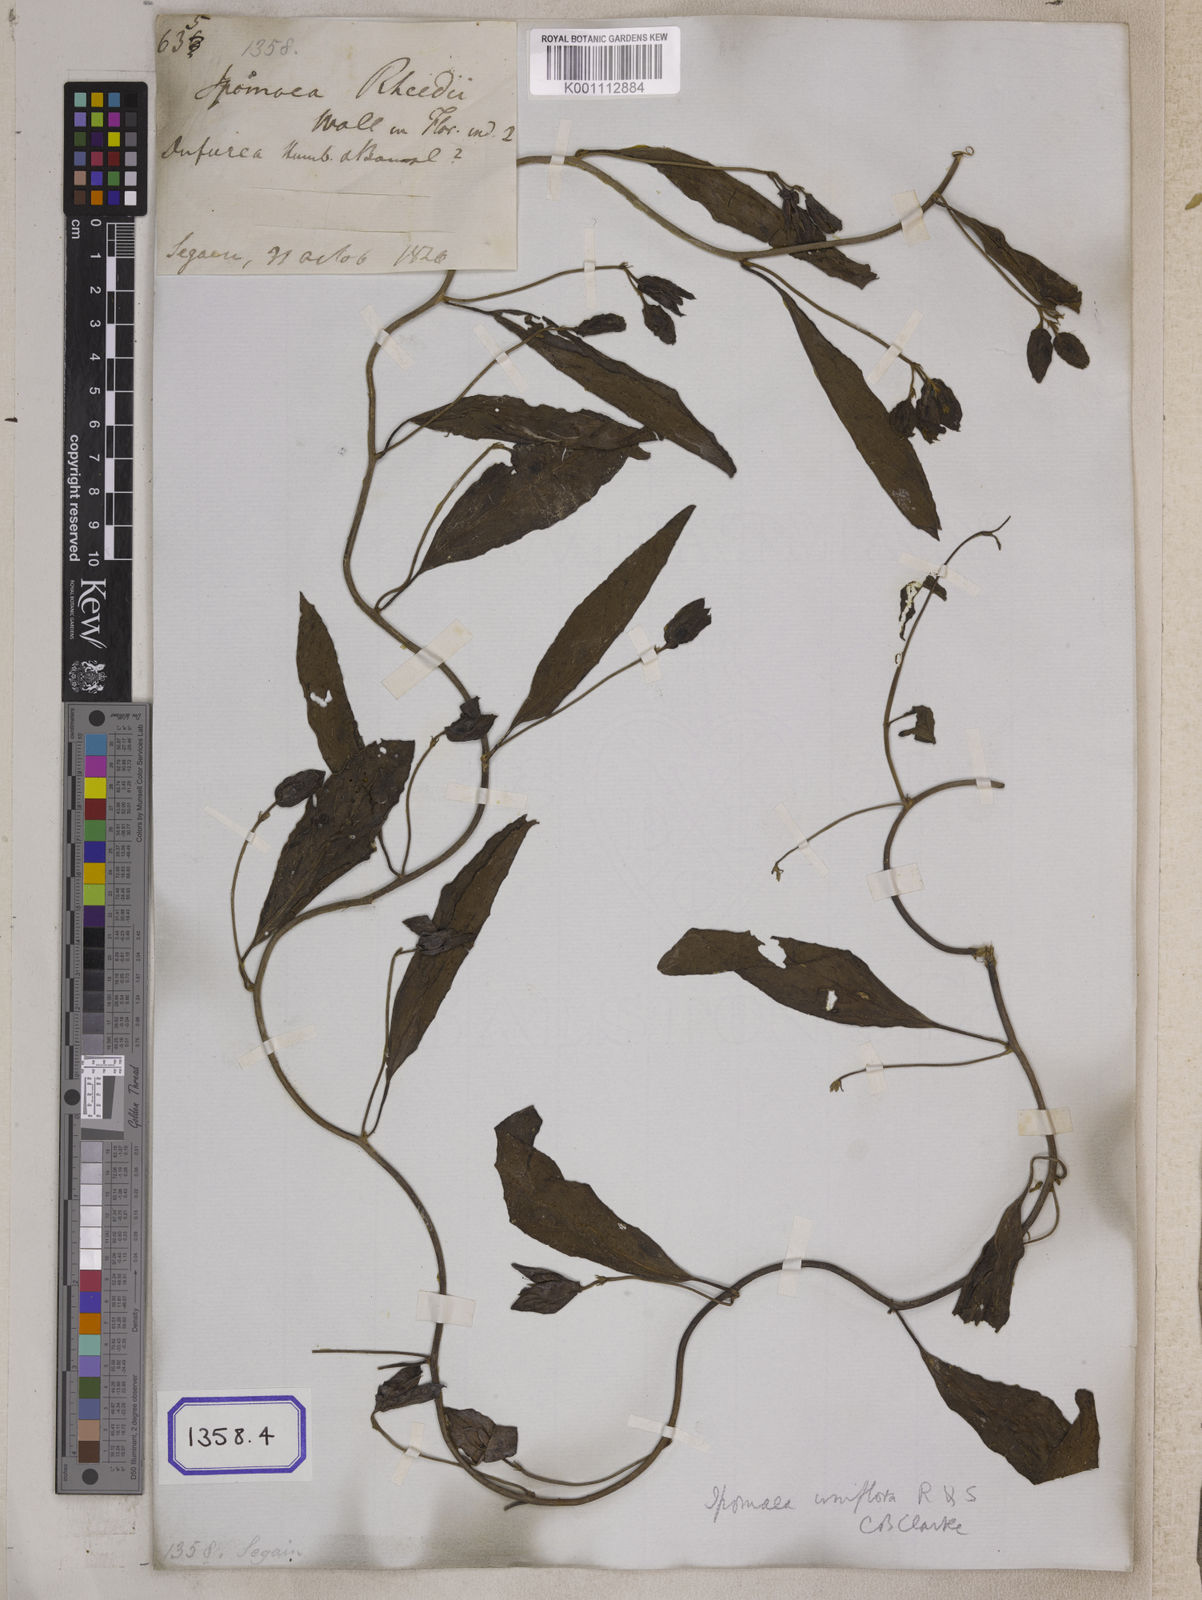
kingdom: Plantae
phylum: Tracheophyta
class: Magnoliopsida
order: Solanales
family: Convolvulaceae
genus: Aniseia
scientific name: Aniseia martinicensis
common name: Kulayadambu
